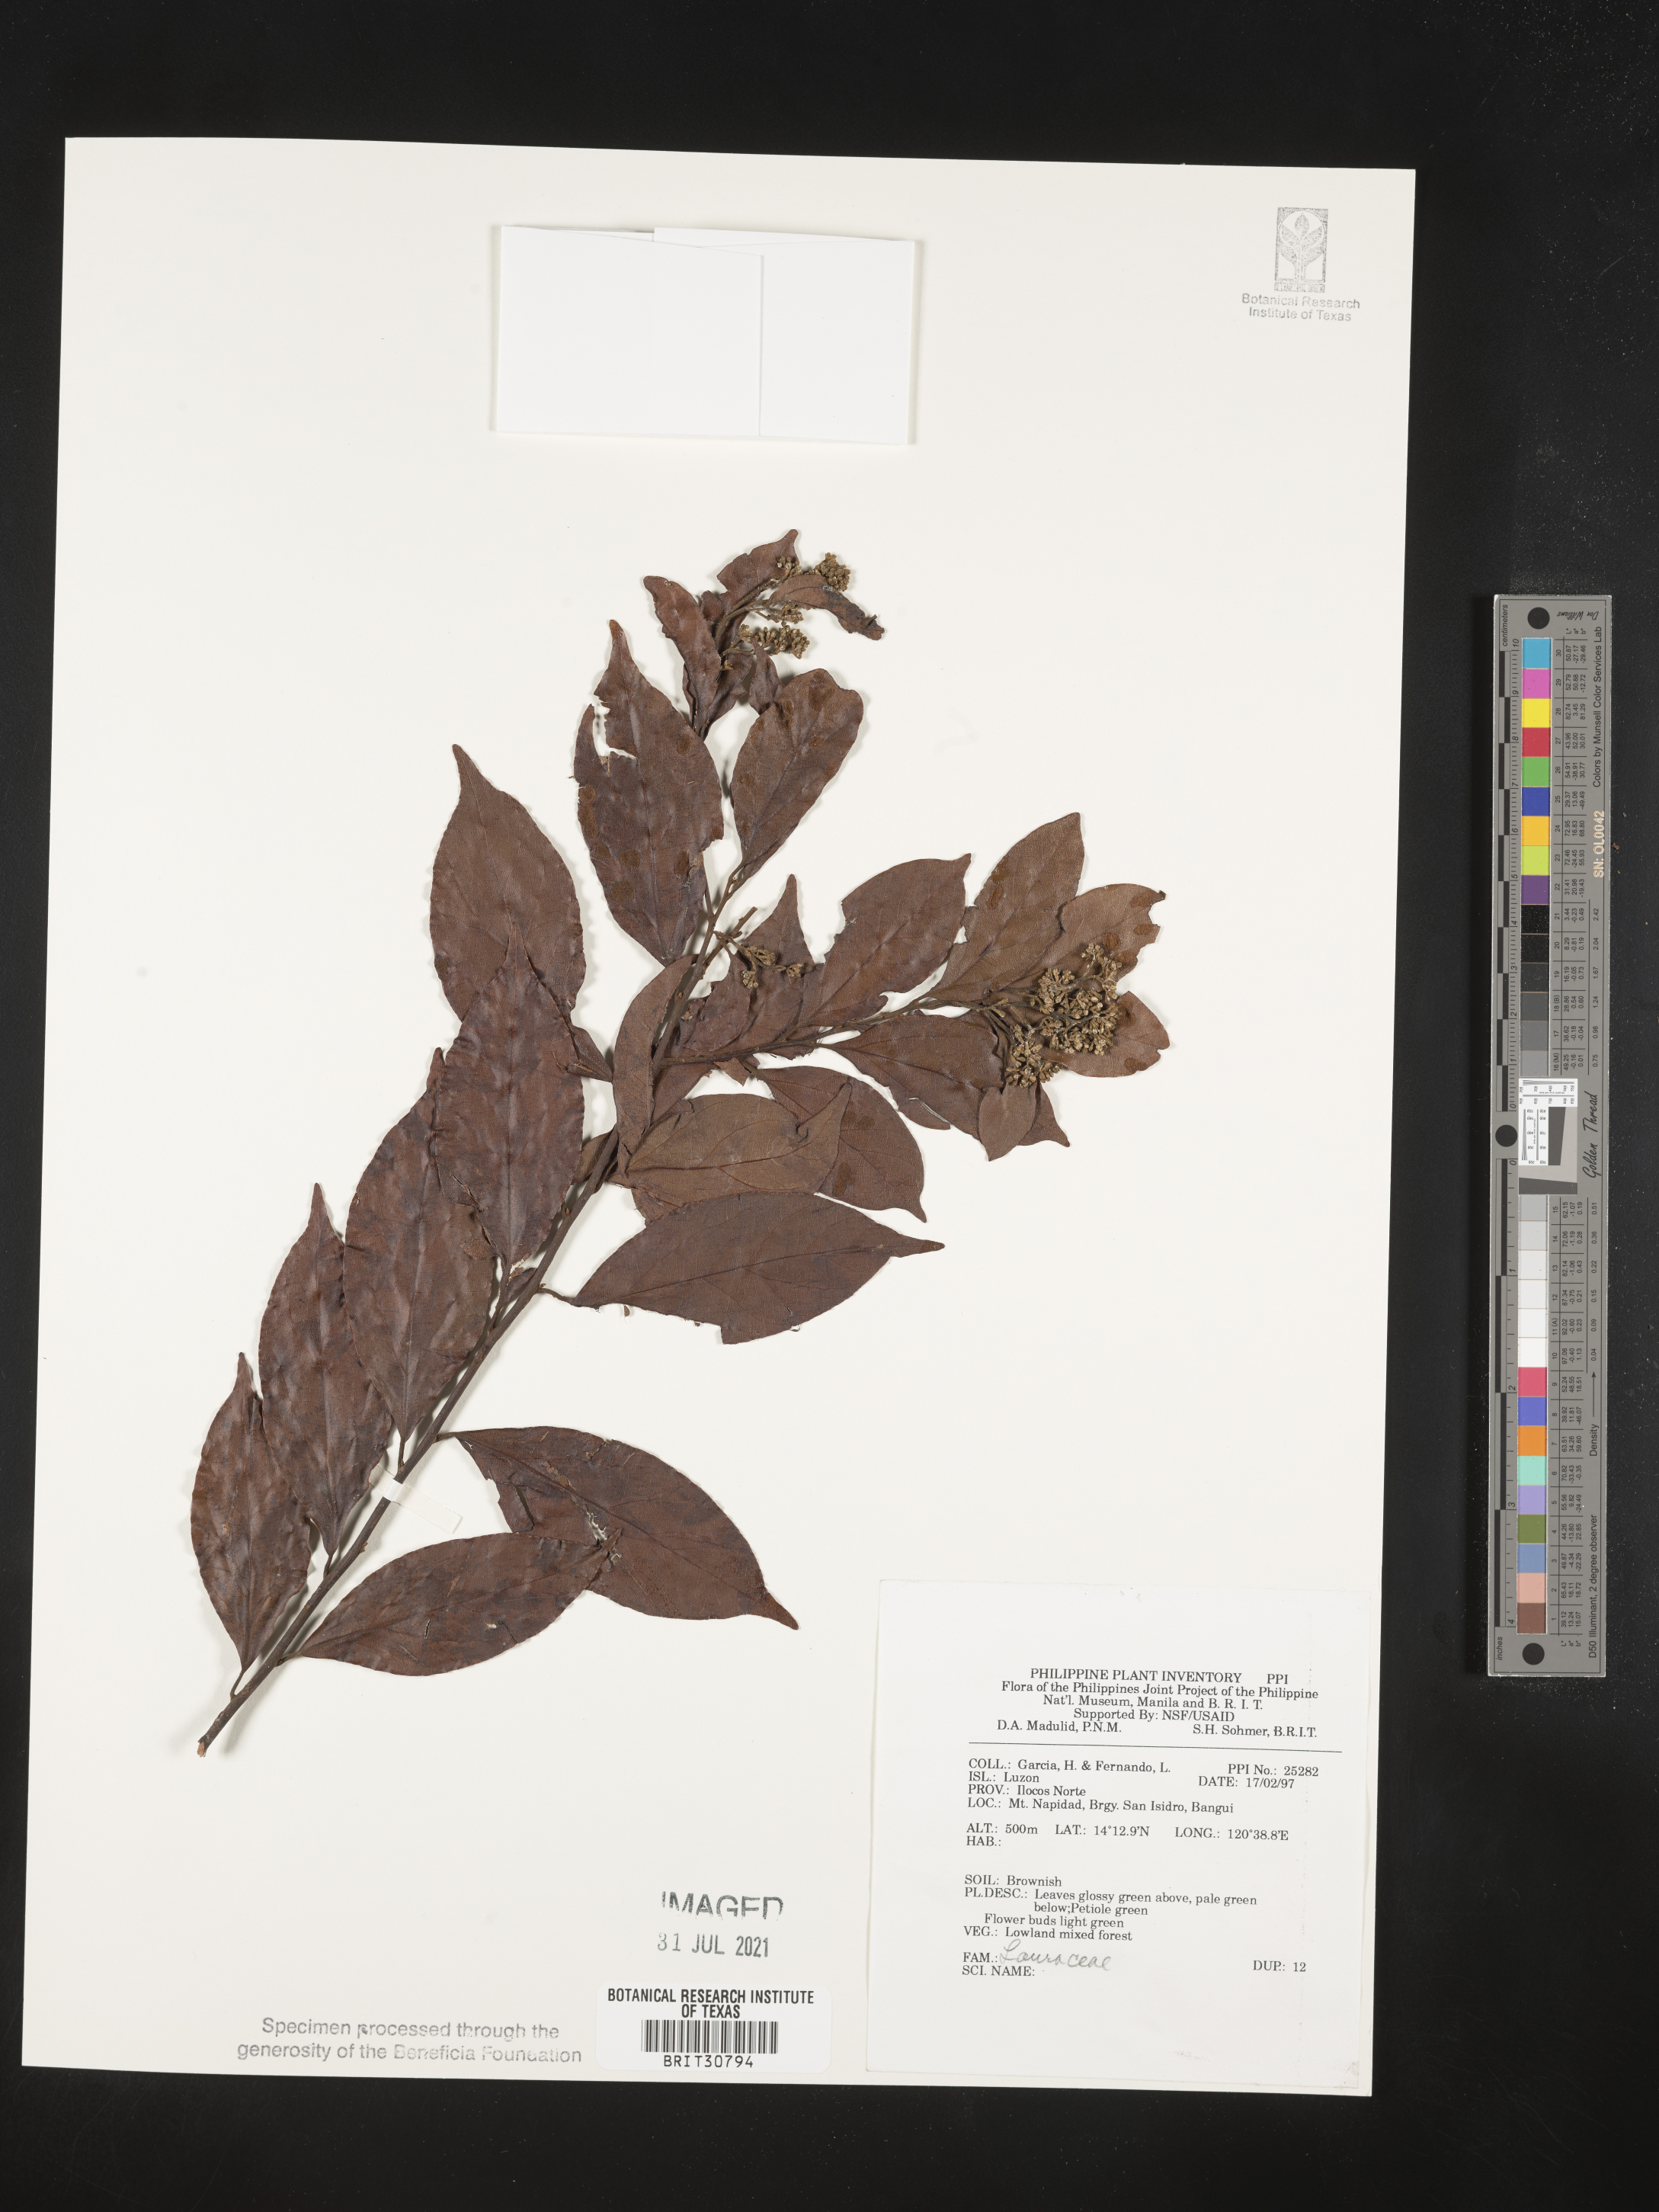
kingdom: Plantae
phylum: Tracheophyta
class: Magnoliopsida
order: Laurales
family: Lauraceae
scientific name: Lauraceae
